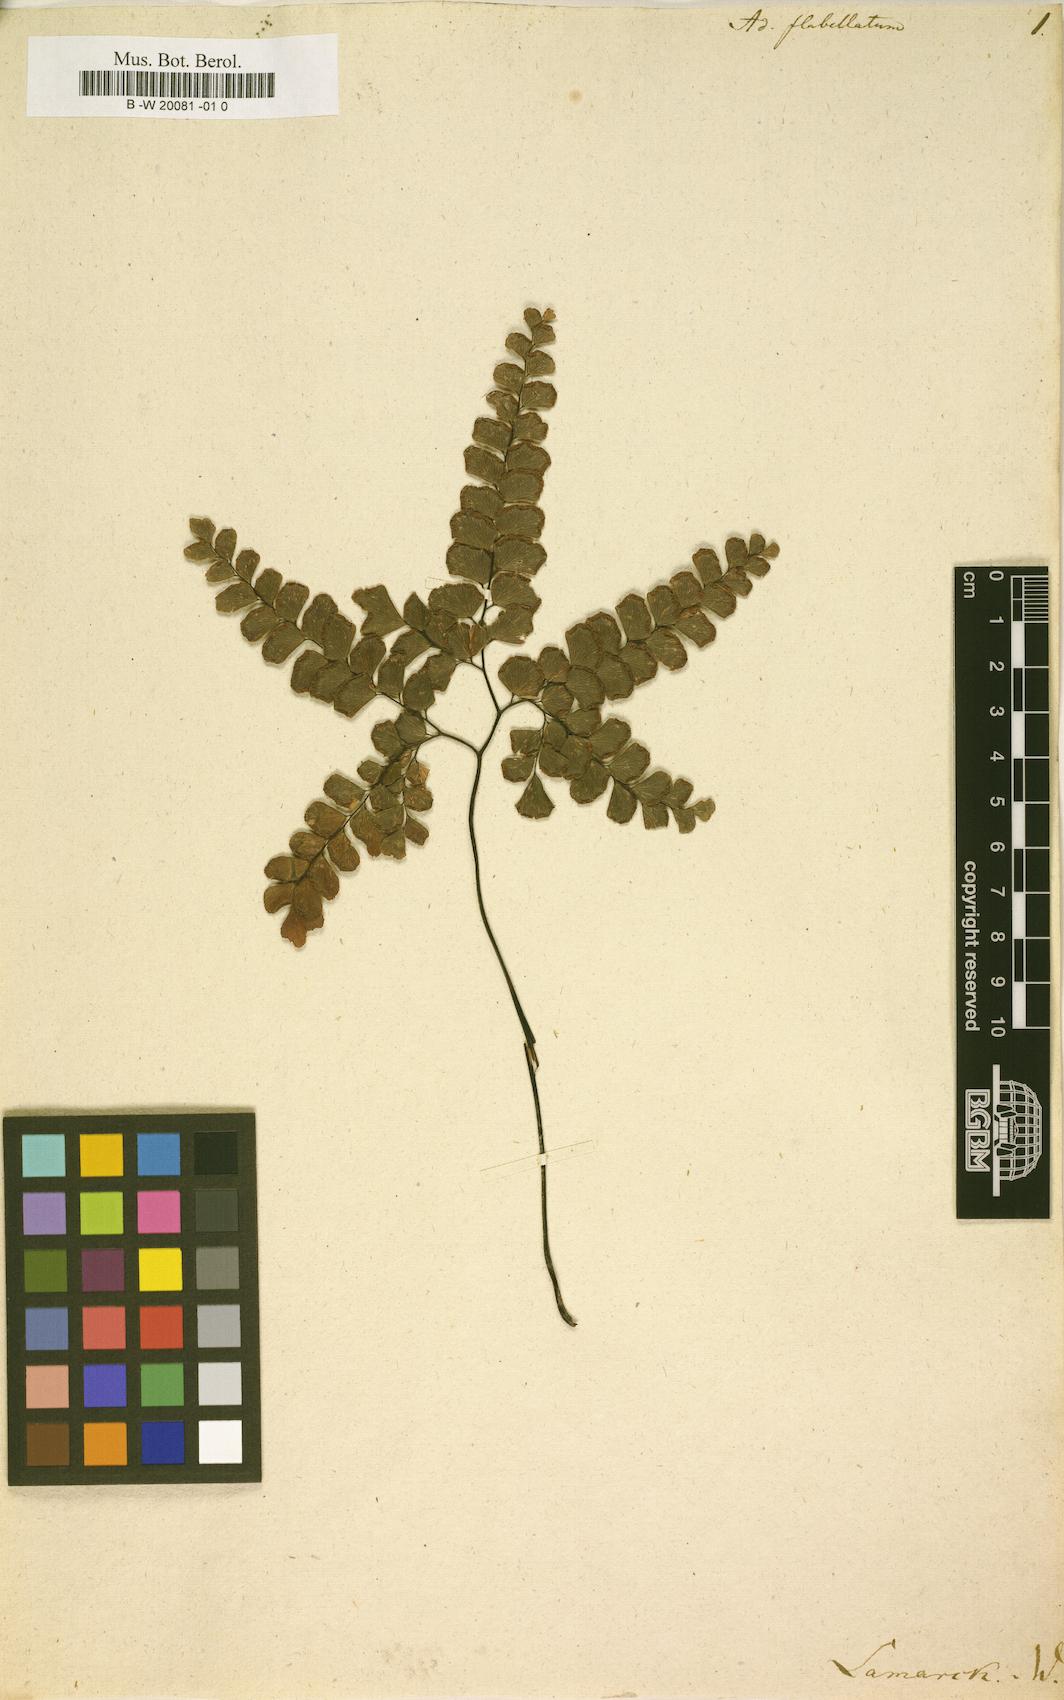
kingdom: Plantae
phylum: Tracheophyta
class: Polypodiopsida
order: Polypodiales
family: Pteridaceae
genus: Adiantum
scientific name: Adiantum flabellulatum
